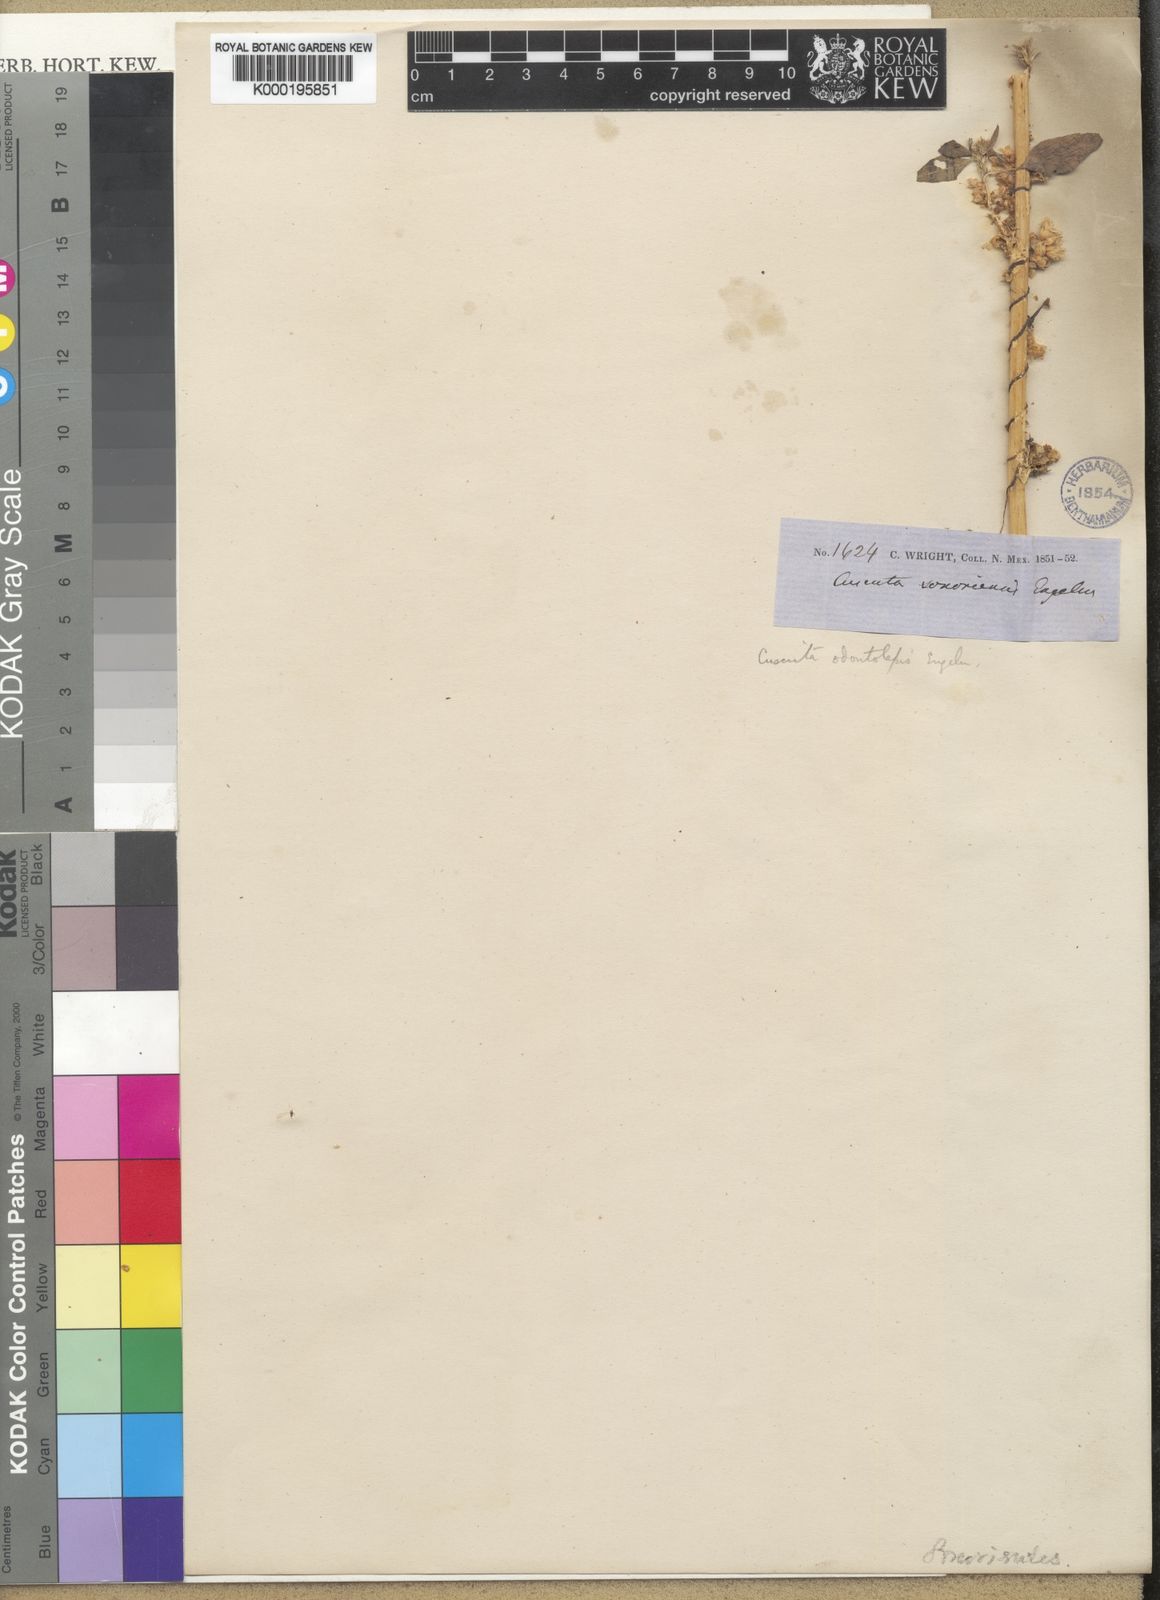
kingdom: Plantae
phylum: Tracheophyta
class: Magnoliopsida
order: Solanales
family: Convolvulaceae
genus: Cuscuta
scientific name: Cuscuta odontolepis
